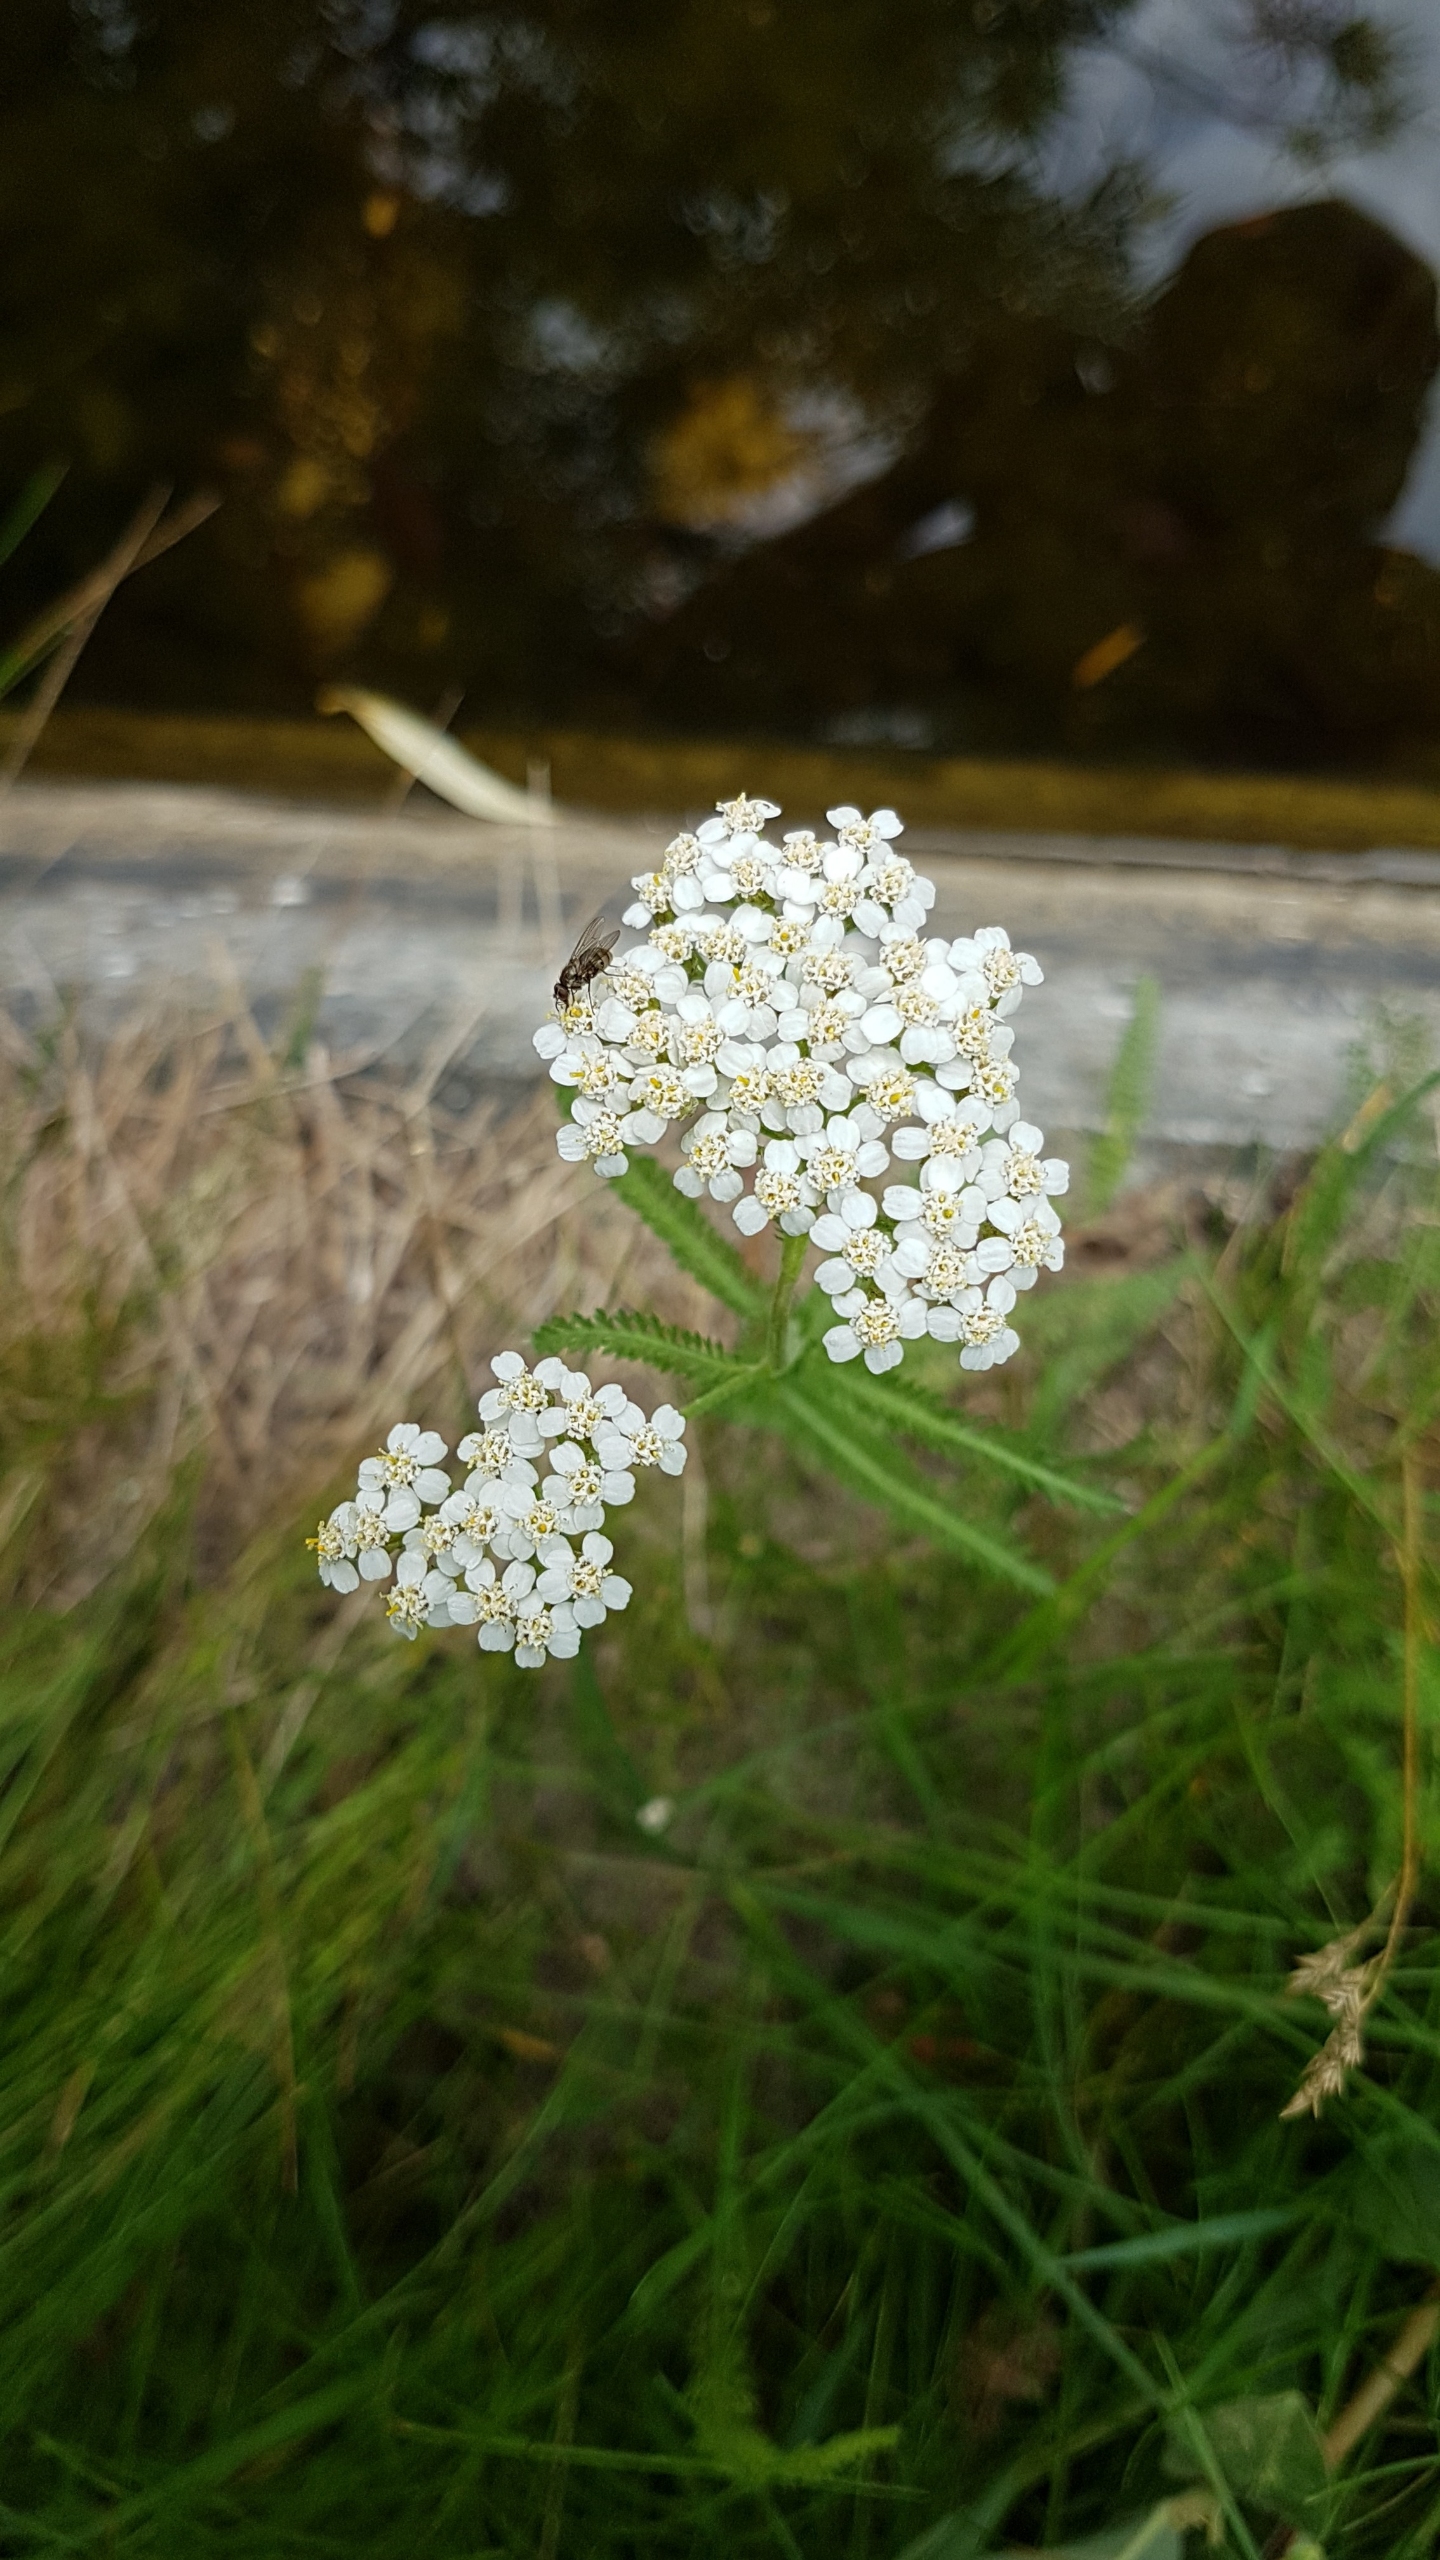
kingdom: Plantae
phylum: Tracheophyta
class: Magnoliopsida
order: Asterales
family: Asteraceae
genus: Achillea
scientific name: Achillea millefolium
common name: Almindelig røllike
